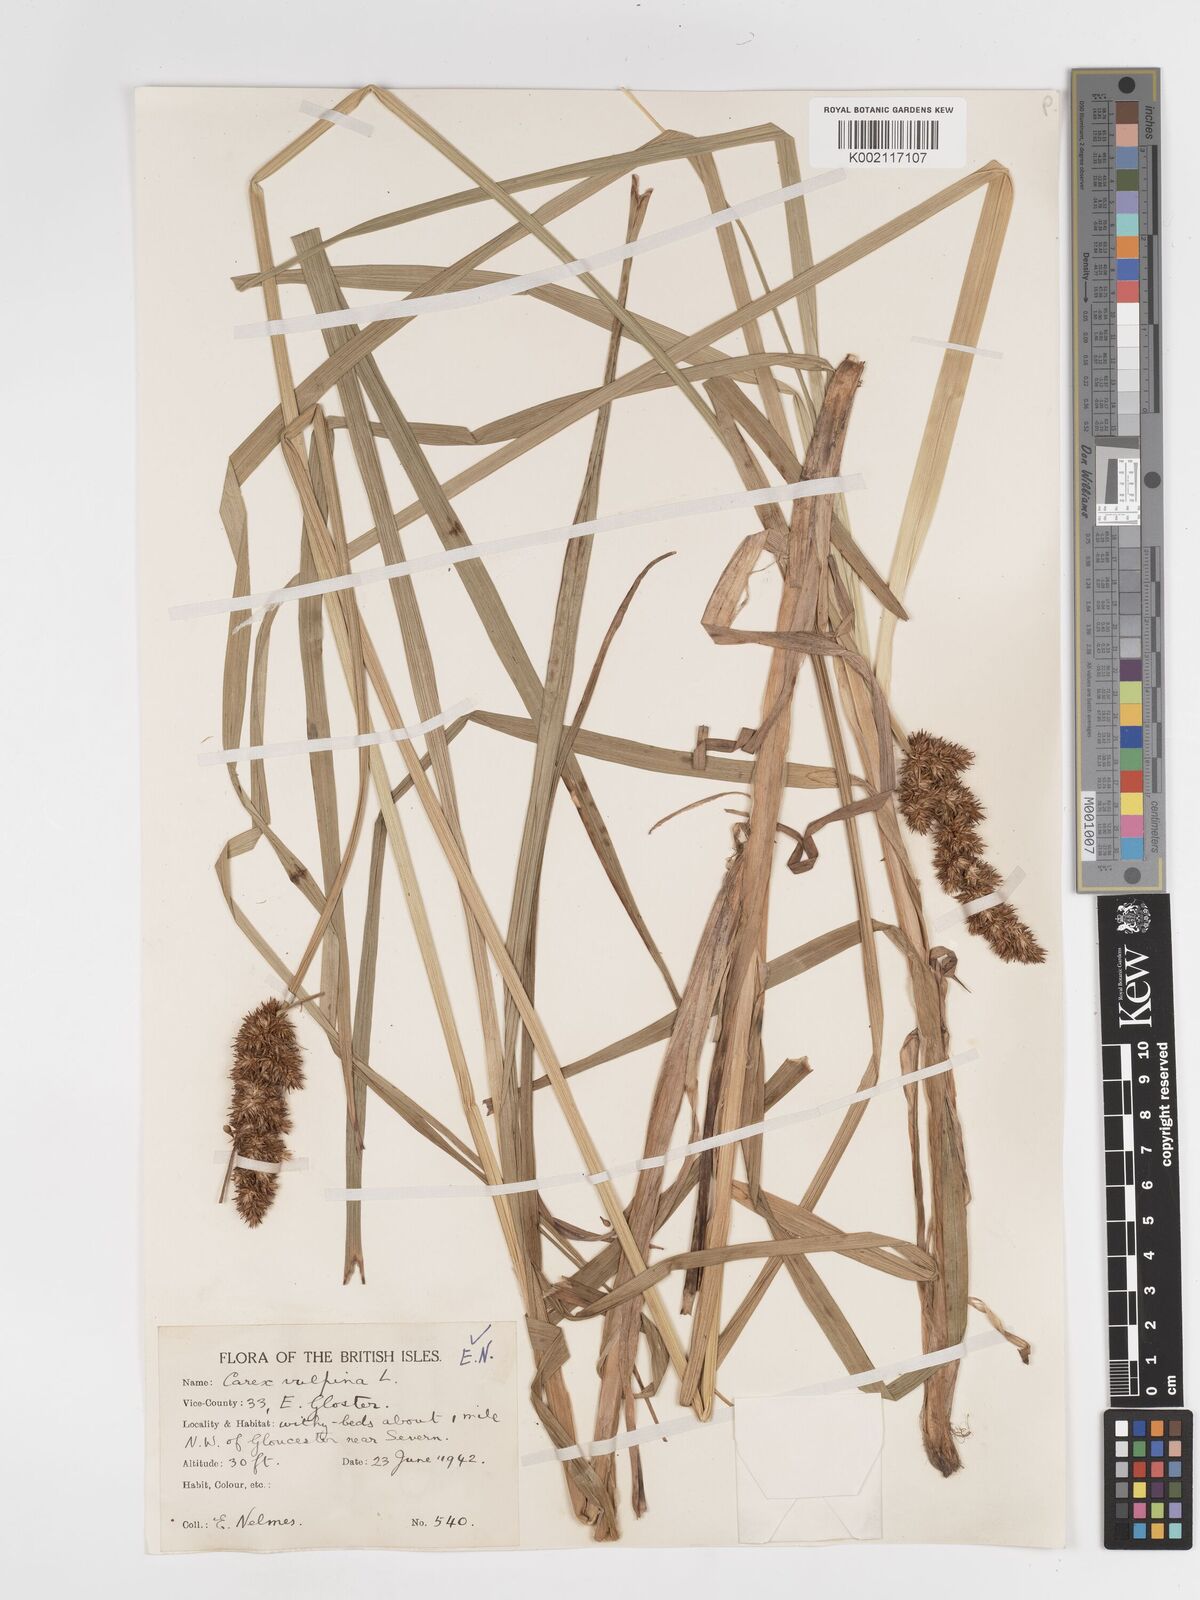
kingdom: Plantae
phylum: Tracheophyta
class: Liliopsida
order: Poales
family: Cyperaceae
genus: Carex
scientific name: Carex vulpina
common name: True fox-sedge
